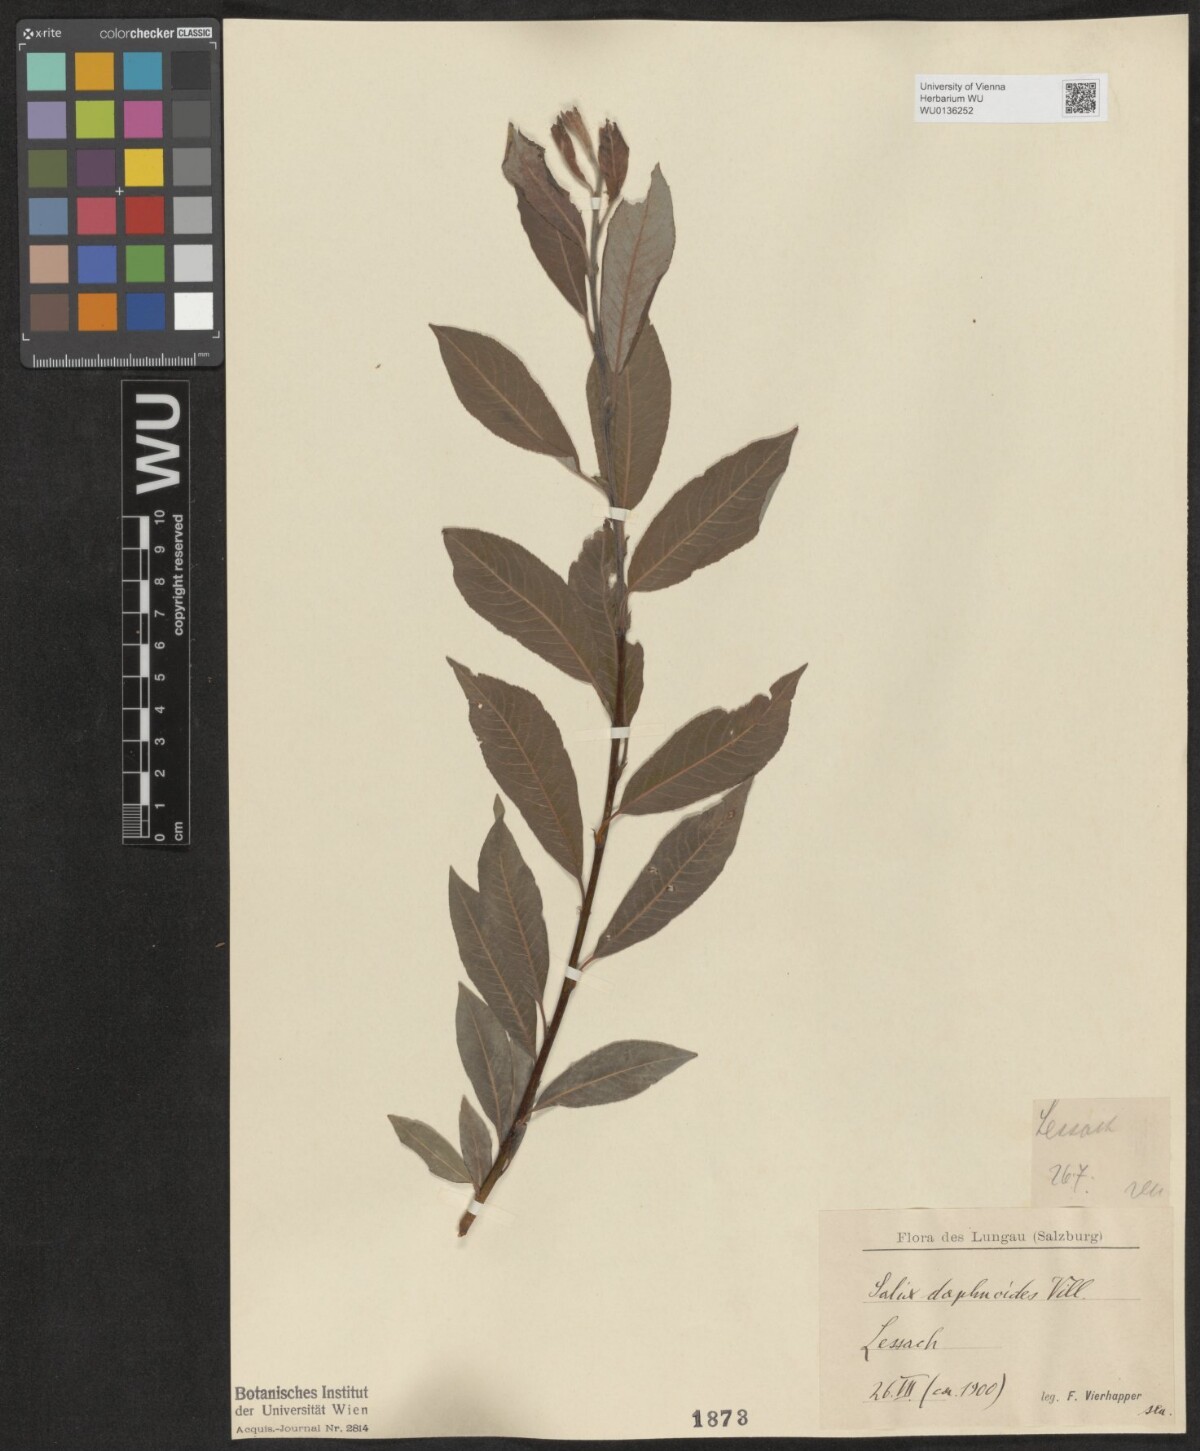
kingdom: Plantae
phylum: Tracheophyta
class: Magnoliopsida
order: Malpighiales
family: Salicaceae
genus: Salix
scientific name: Salix daphnoides
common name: European violet-willow
